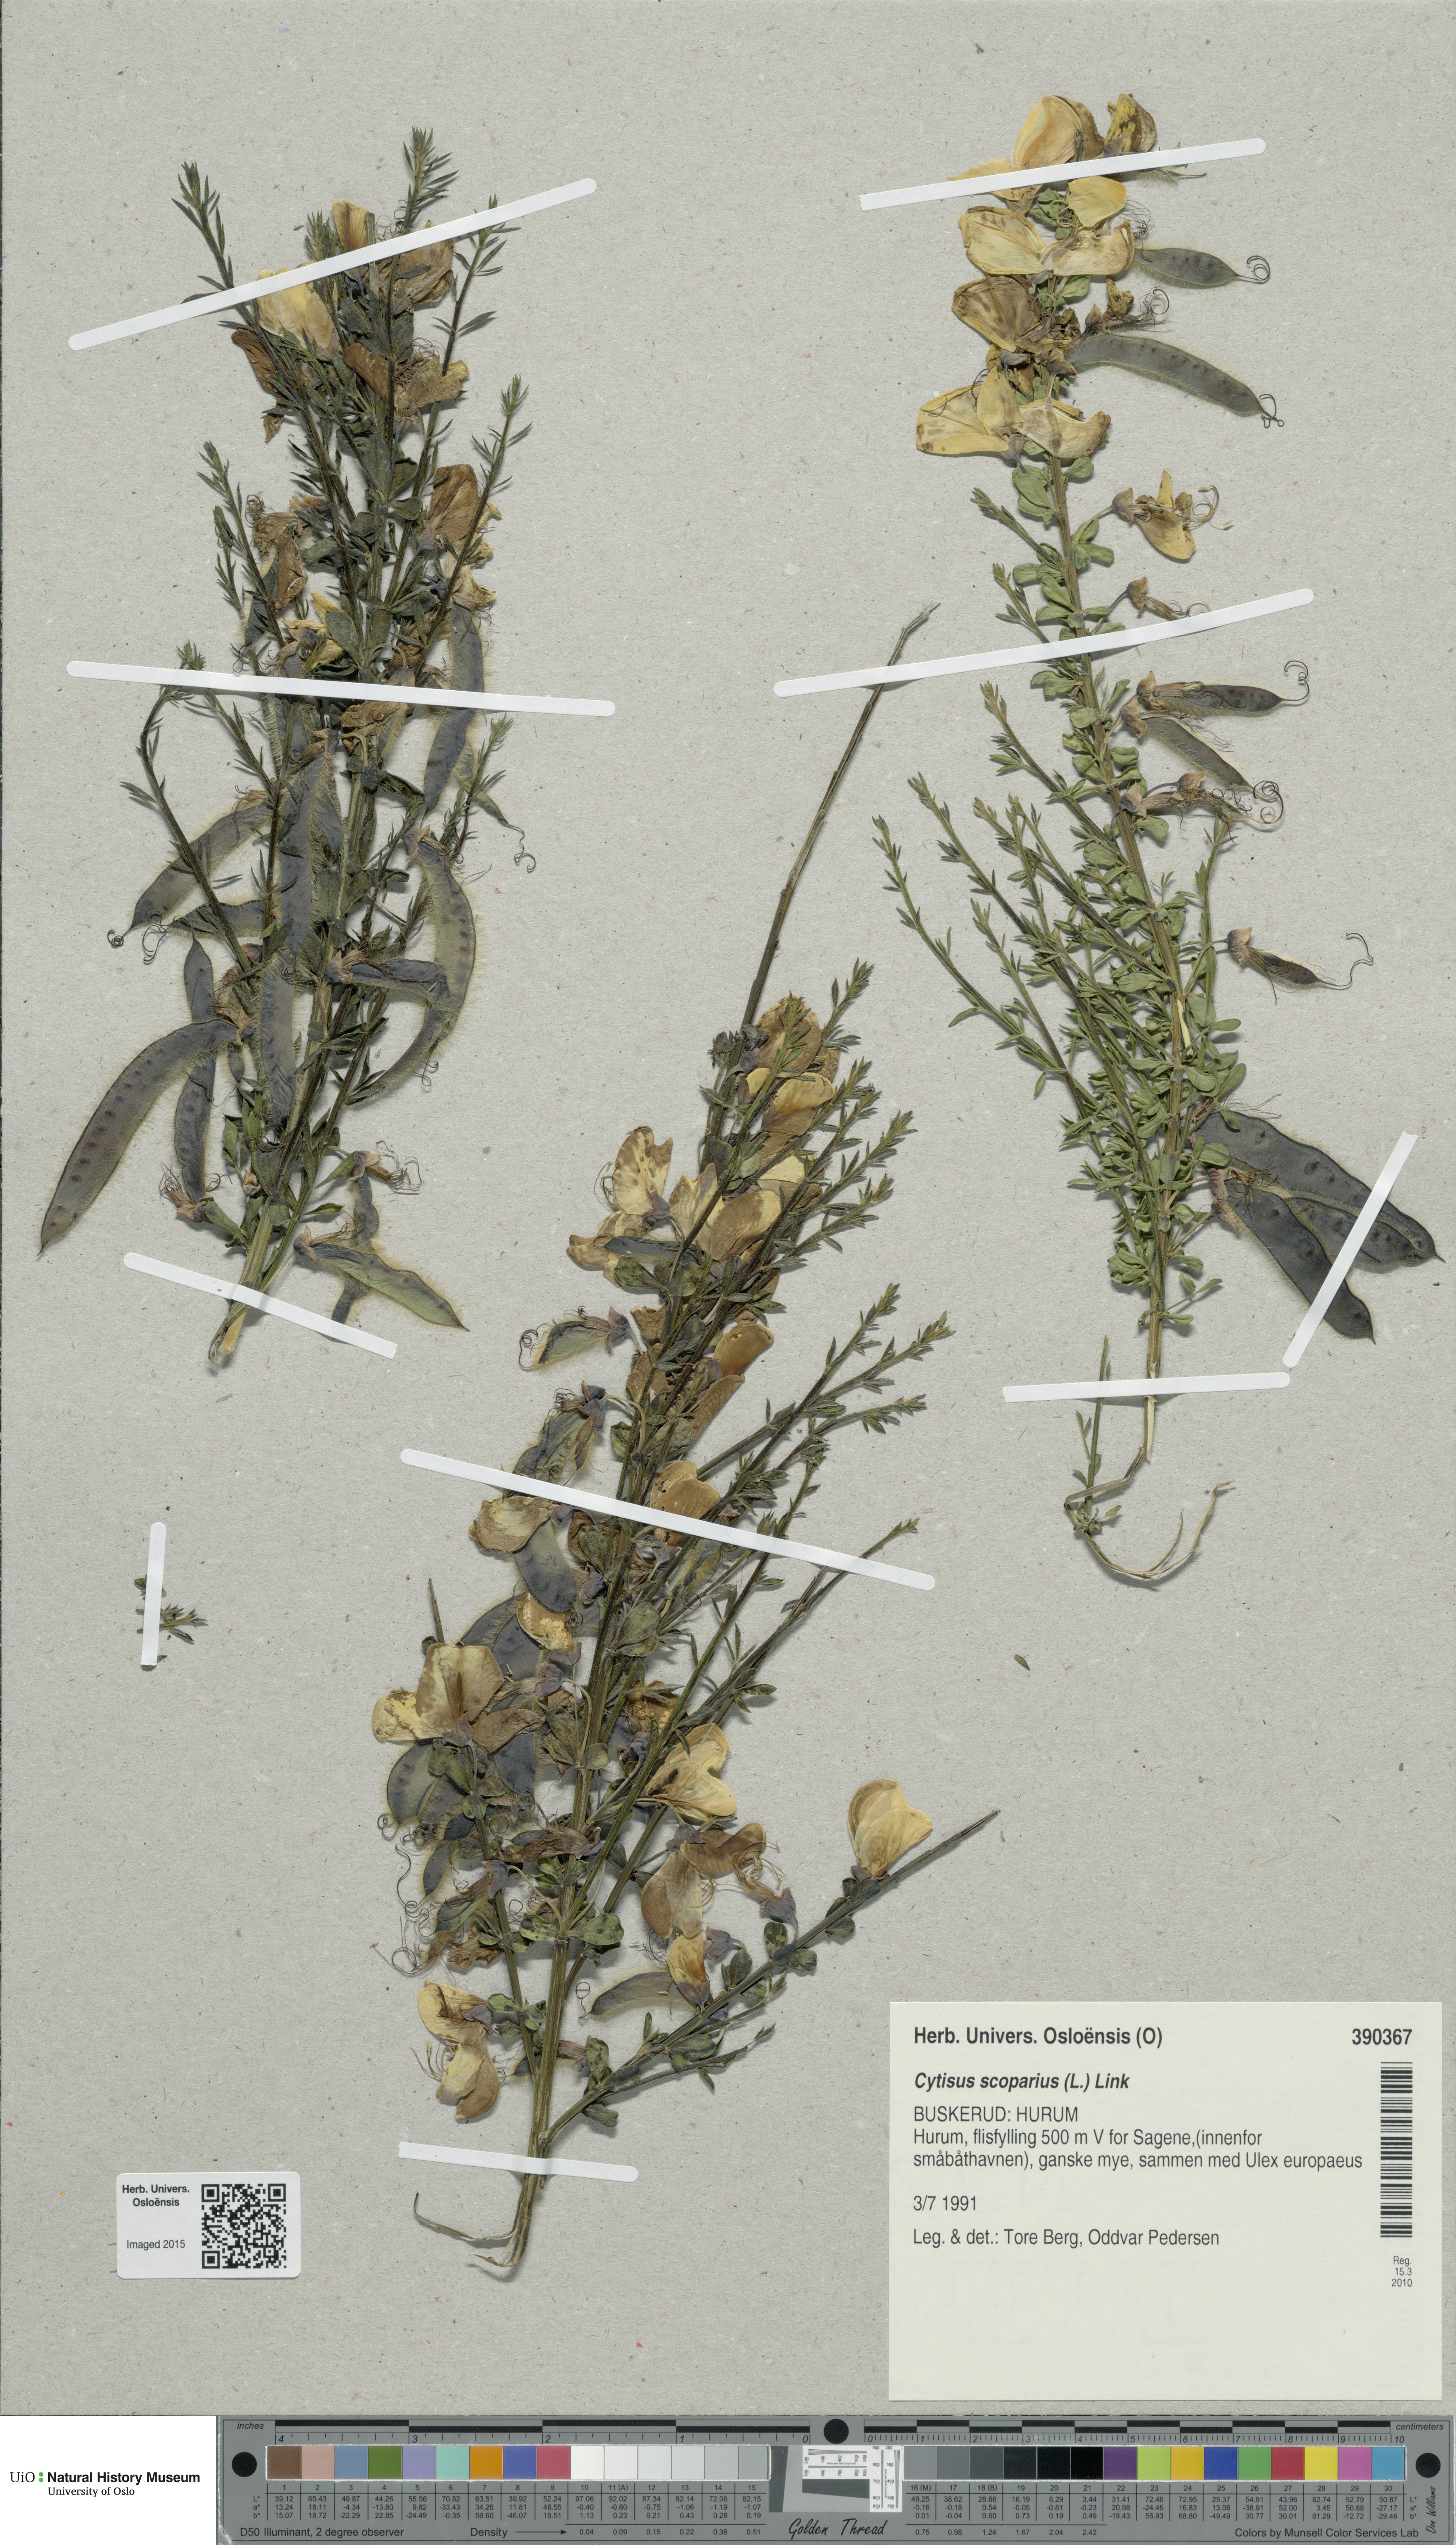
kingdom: Plantae
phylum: Tracheophyta
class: Magnoliopsida
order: Fabales
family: Fabaceae
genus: Cytisus
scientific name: Cytisus scoparius
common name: Scotch broom
